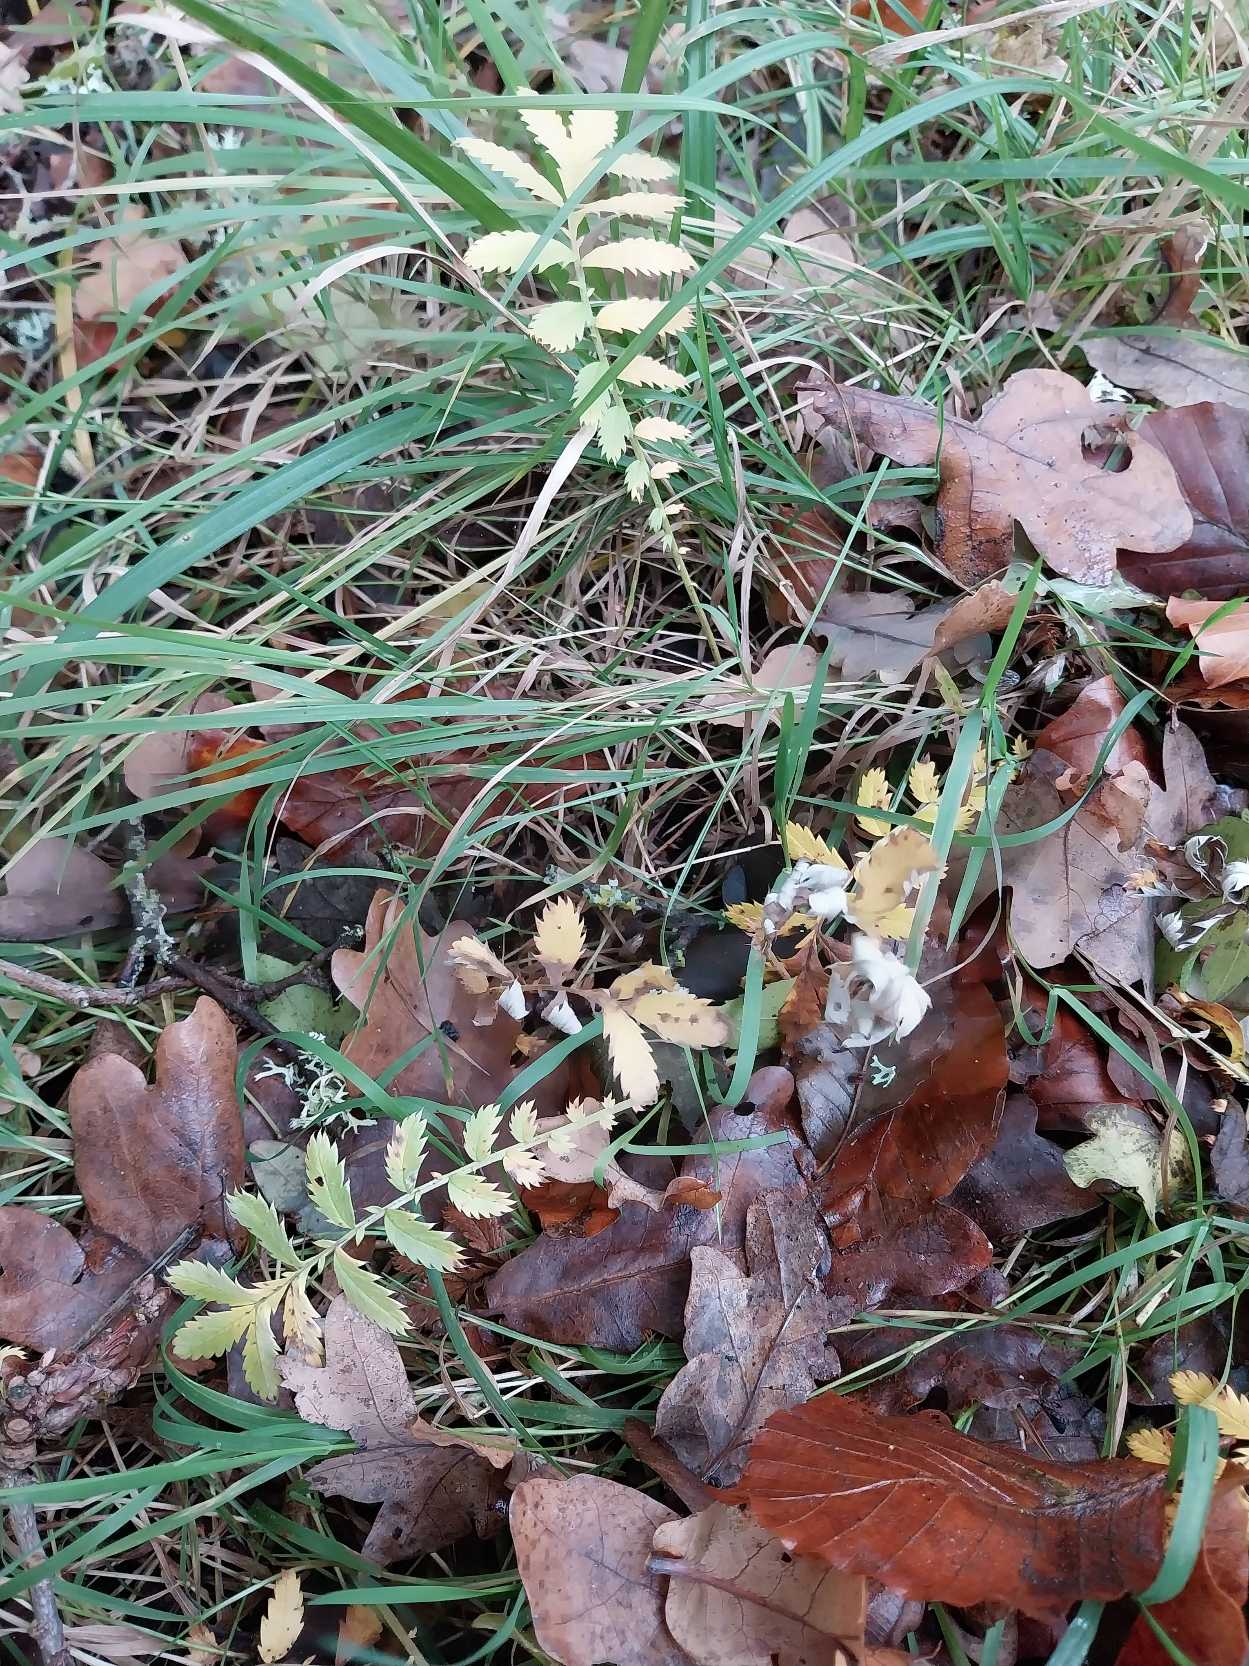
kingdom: Plantae
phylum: Tracheophyta
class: Magnoliopsida
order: Rosales
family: Rosaceae
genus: Argentina
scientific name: Argentina anserina
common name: Gåsepotentil
